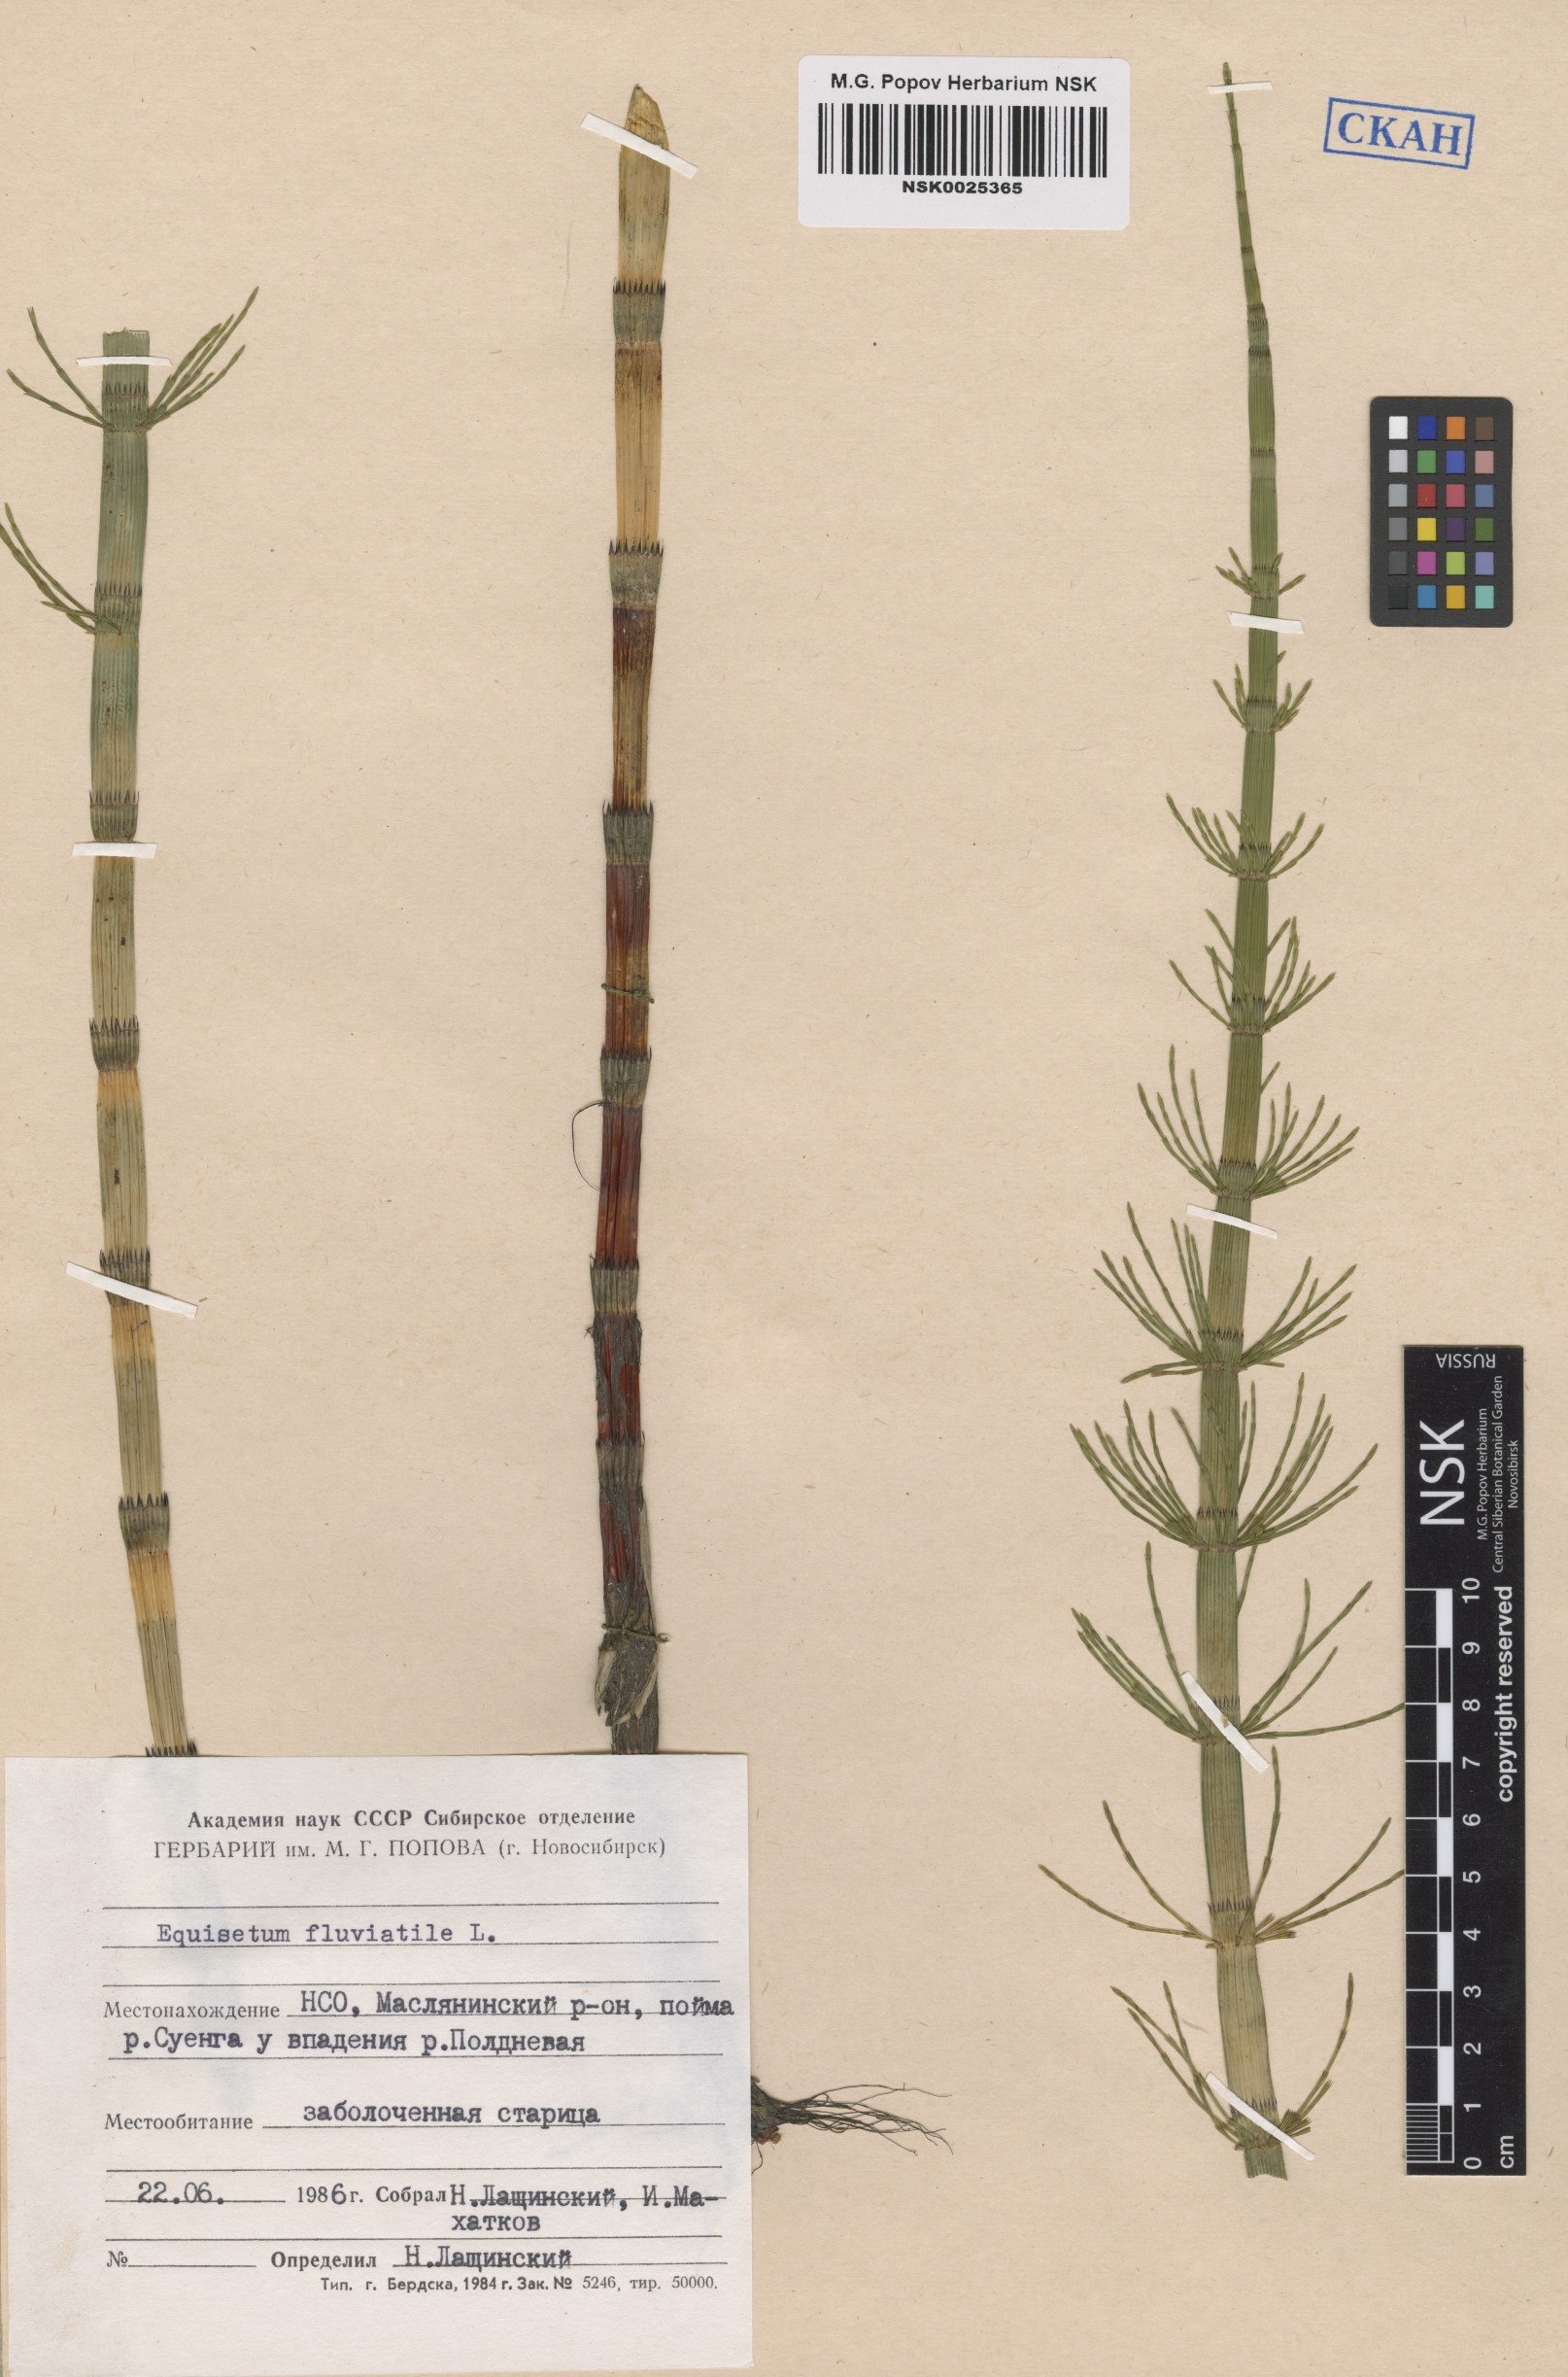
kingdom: Plantae
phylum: Tracheophyta
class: Polypodiopsida
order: Equisetales
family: Equisetaceae
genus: Equisetum
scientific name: Equisetum fluviatile
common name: Water horsetail
